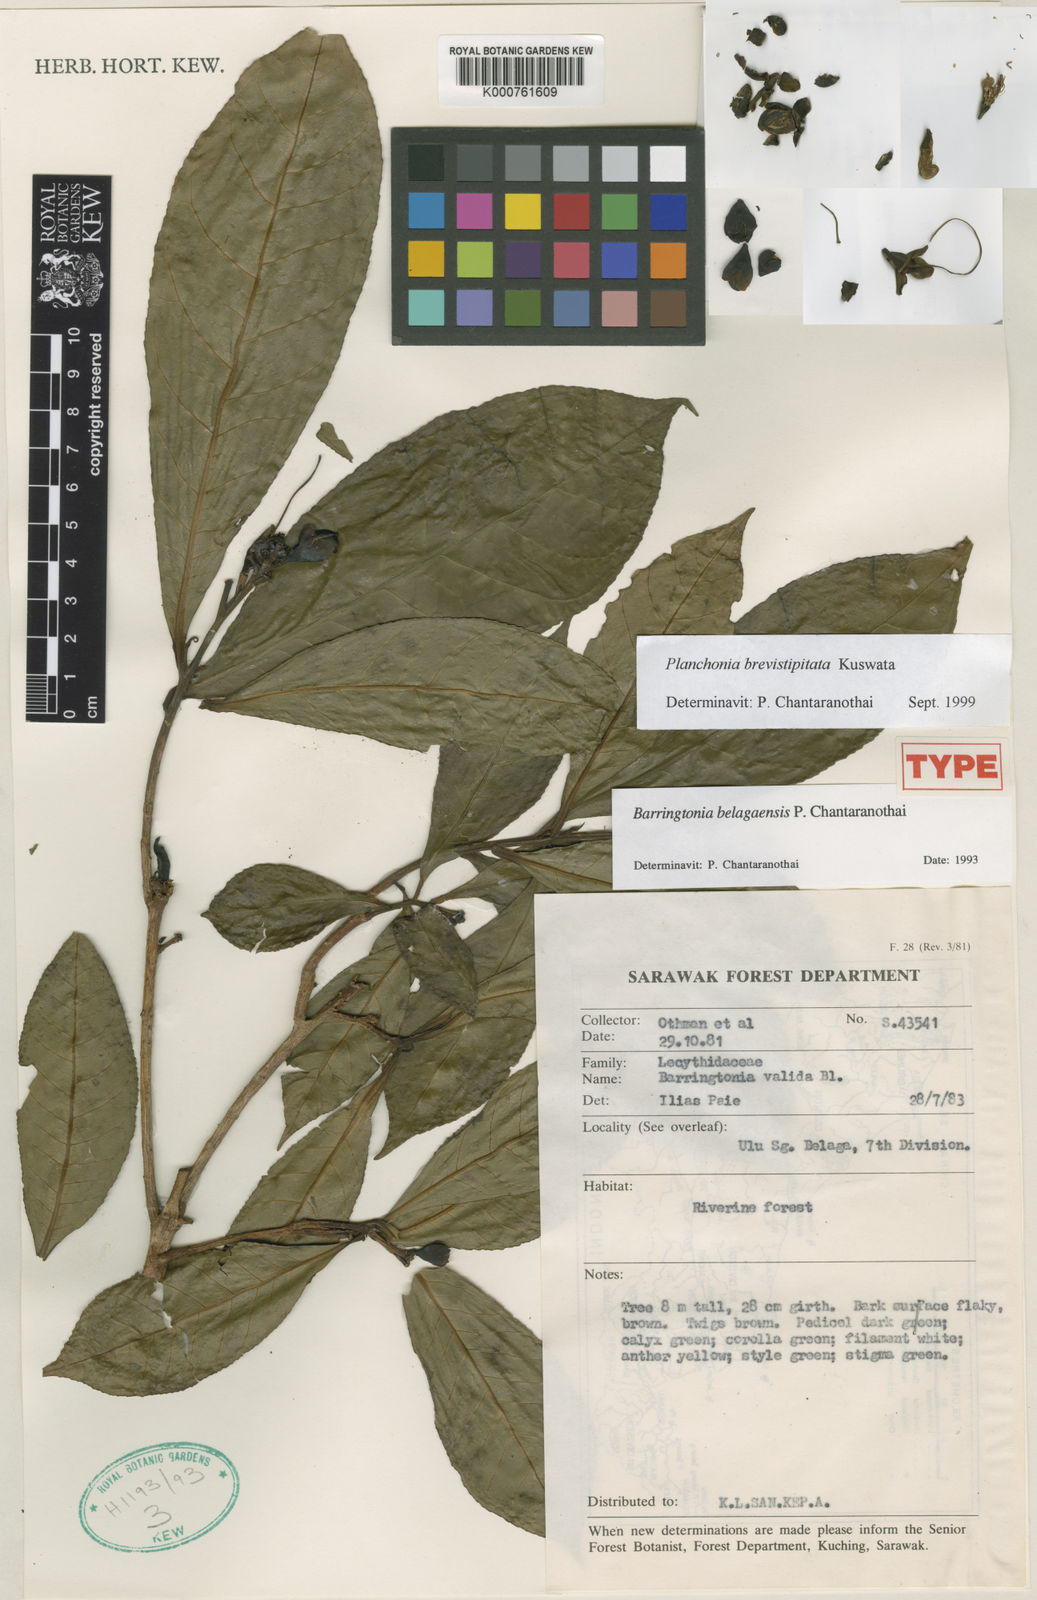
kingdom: Plantae
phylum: Tracheophyta
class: Magnoliopsida
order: Ericales
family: Lecythidaceae
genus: Planchonia
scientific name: Planchonia brevistipitata
